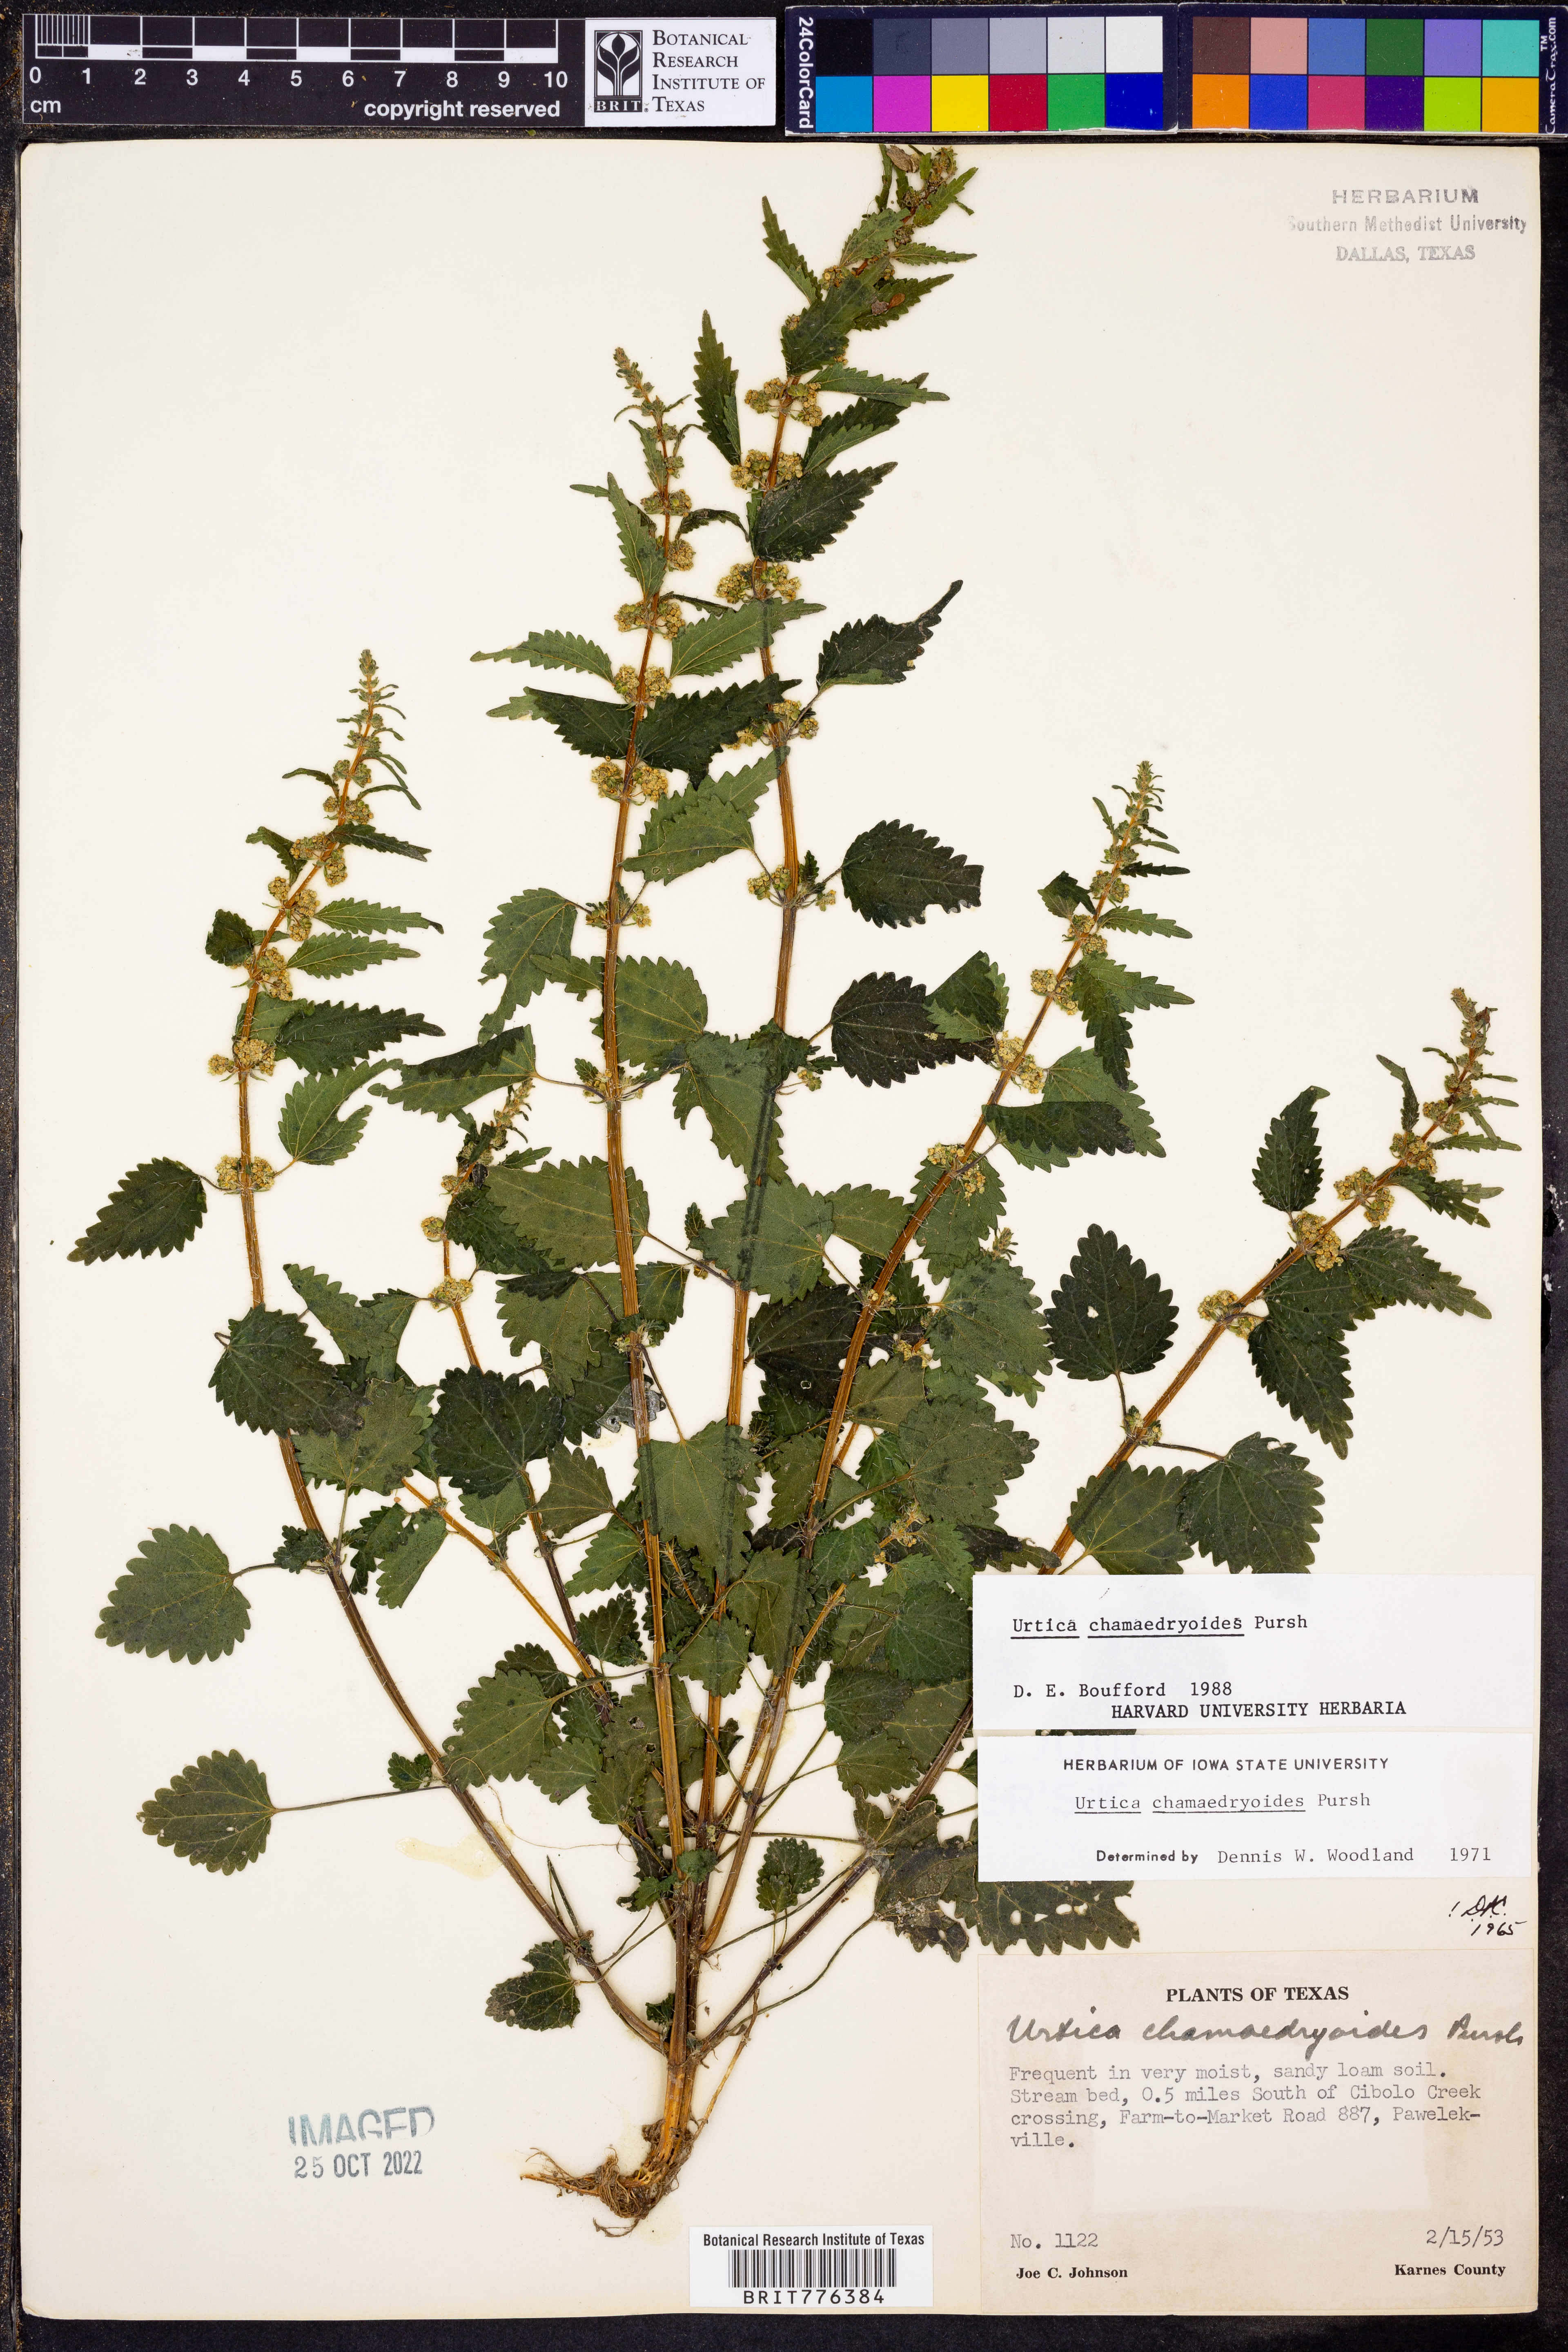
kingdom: Plantae
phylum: Tracheophyta
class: Magnoliopsida
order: Rosales
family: Urticaceae
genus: Urtica
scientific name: Urtica chamaedryoides
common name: Heart-leaf nettle
